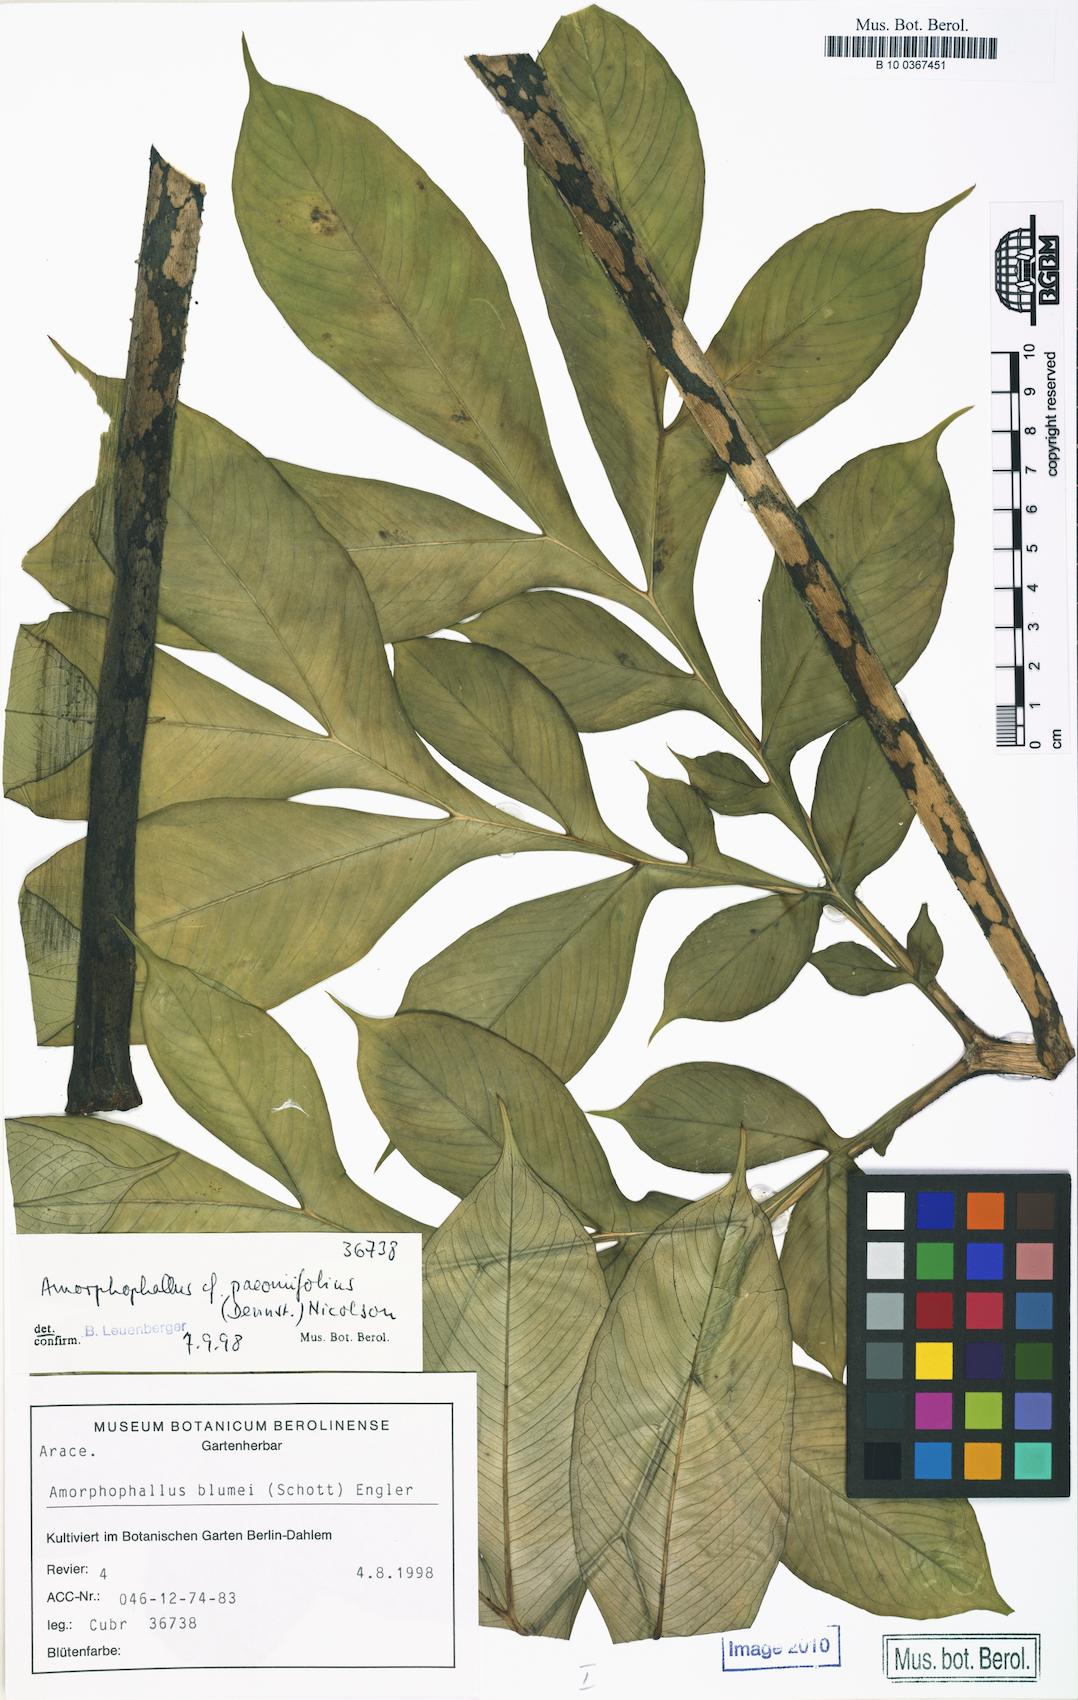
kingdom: Plantae
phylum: Tracheophyta
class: Liliopsida
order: Alismatales
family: Araceae
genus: Amorphophallus
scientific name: Amorphophallus paeoniifolius
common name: Telinga-potato
